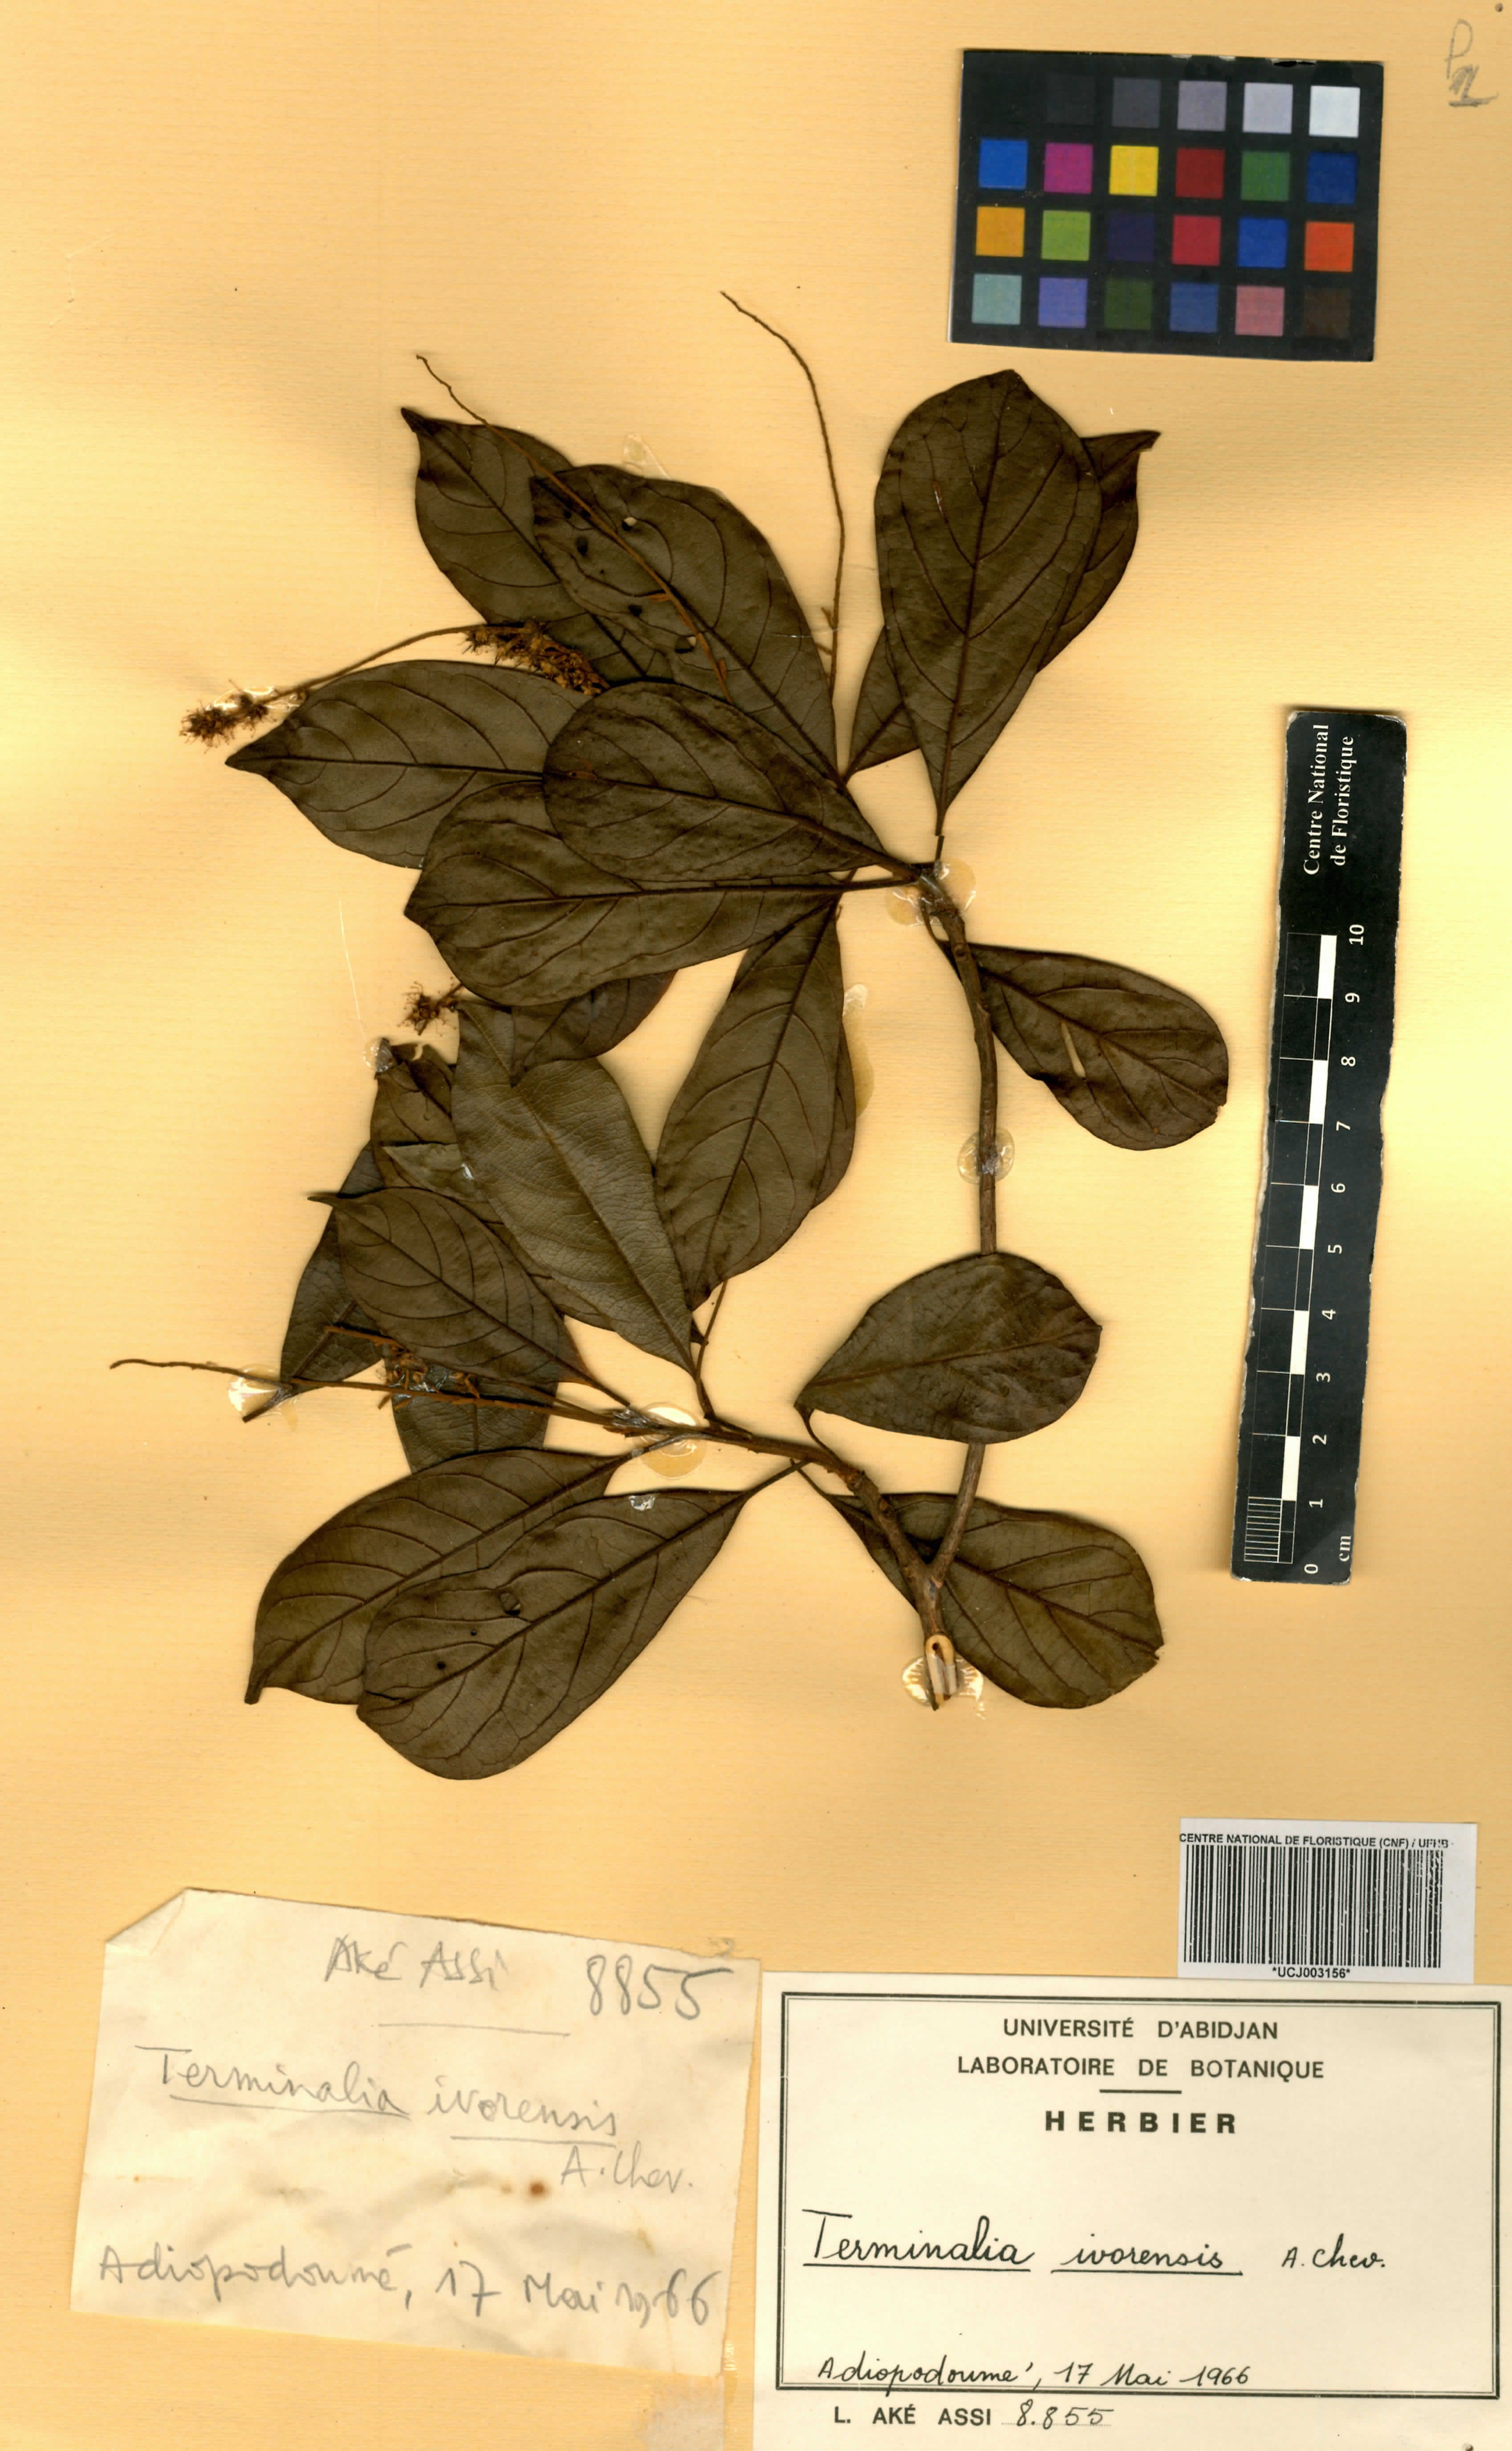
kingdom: Plantae
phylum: Tracheophyta
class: Magnoliopsida
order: Myrtales
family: Combretaceae
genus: Terminalia
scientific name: Terminalia ivorensis
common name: Black afara
